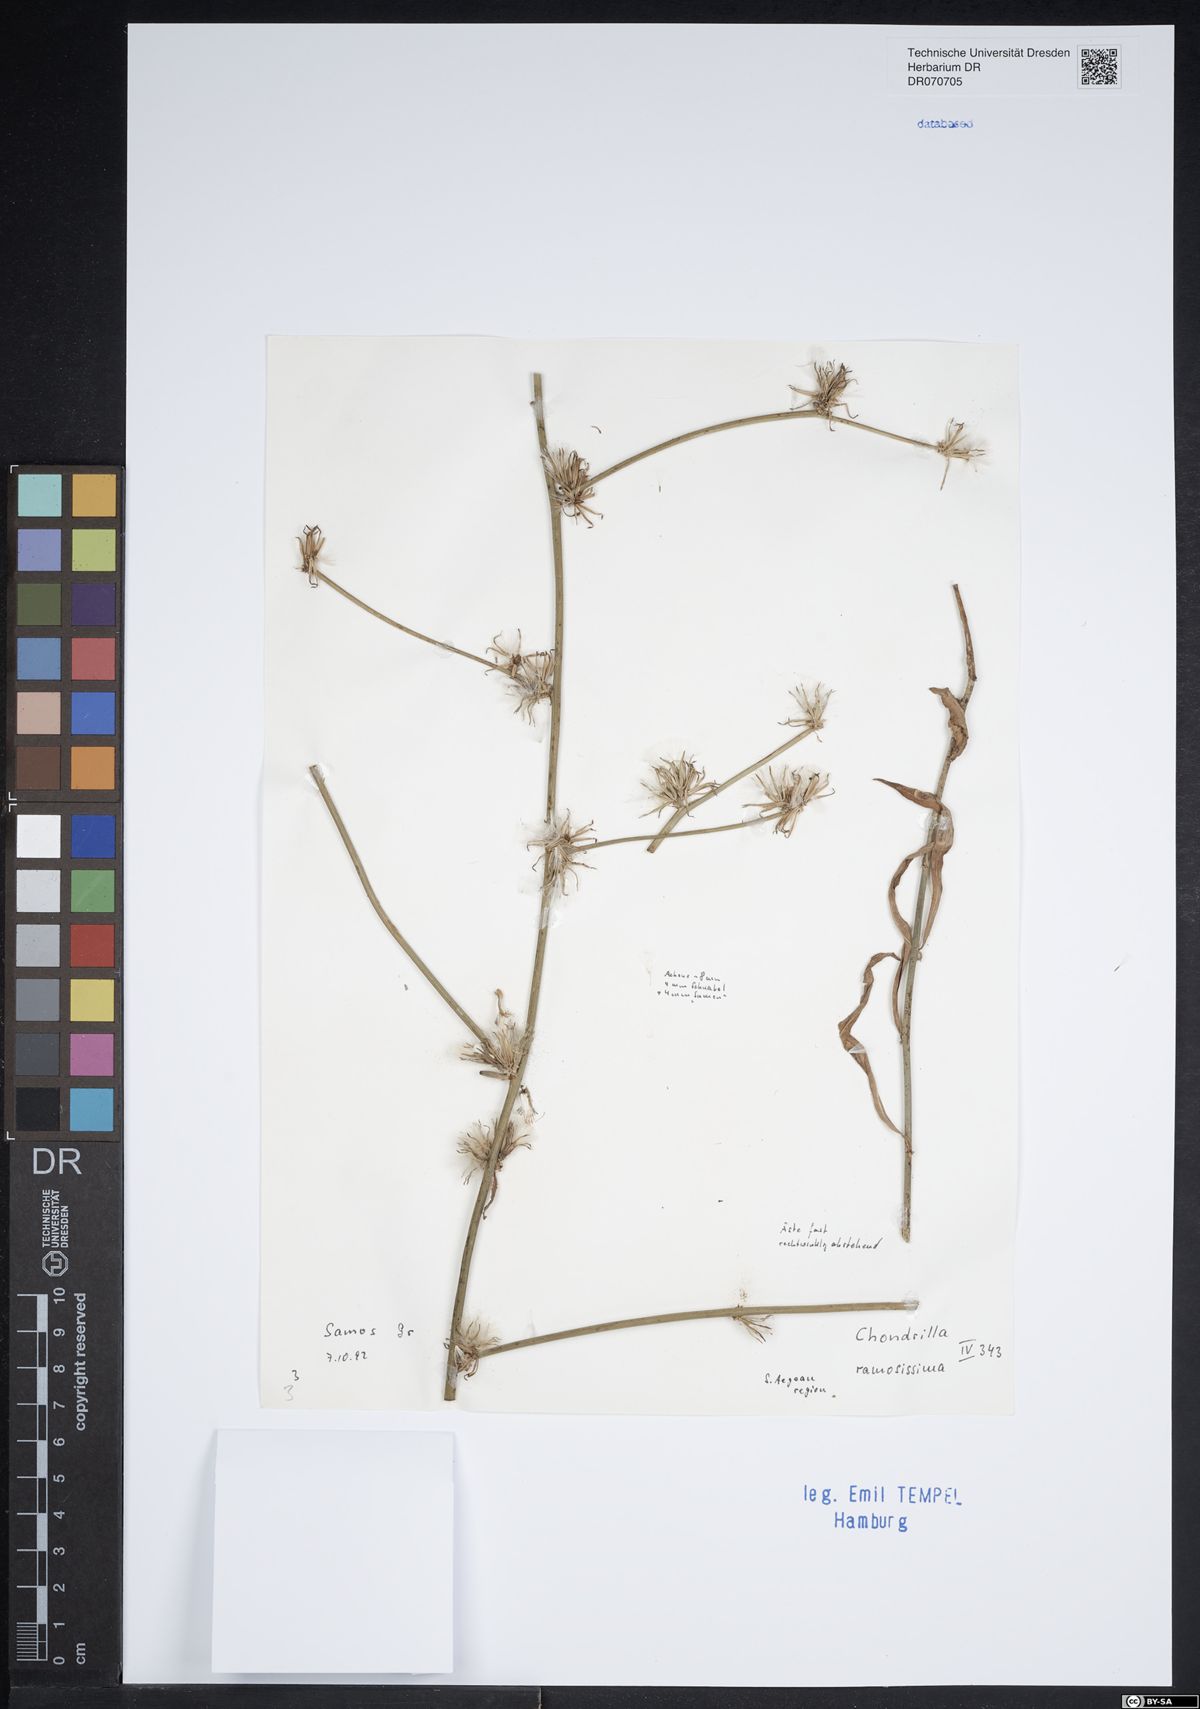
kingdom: Plantae
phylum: Tracheophyta
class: Magnoliopsida
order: Asterales
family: Asteraceae
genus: Chondrilla
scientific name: Chondrilla ramosissima
